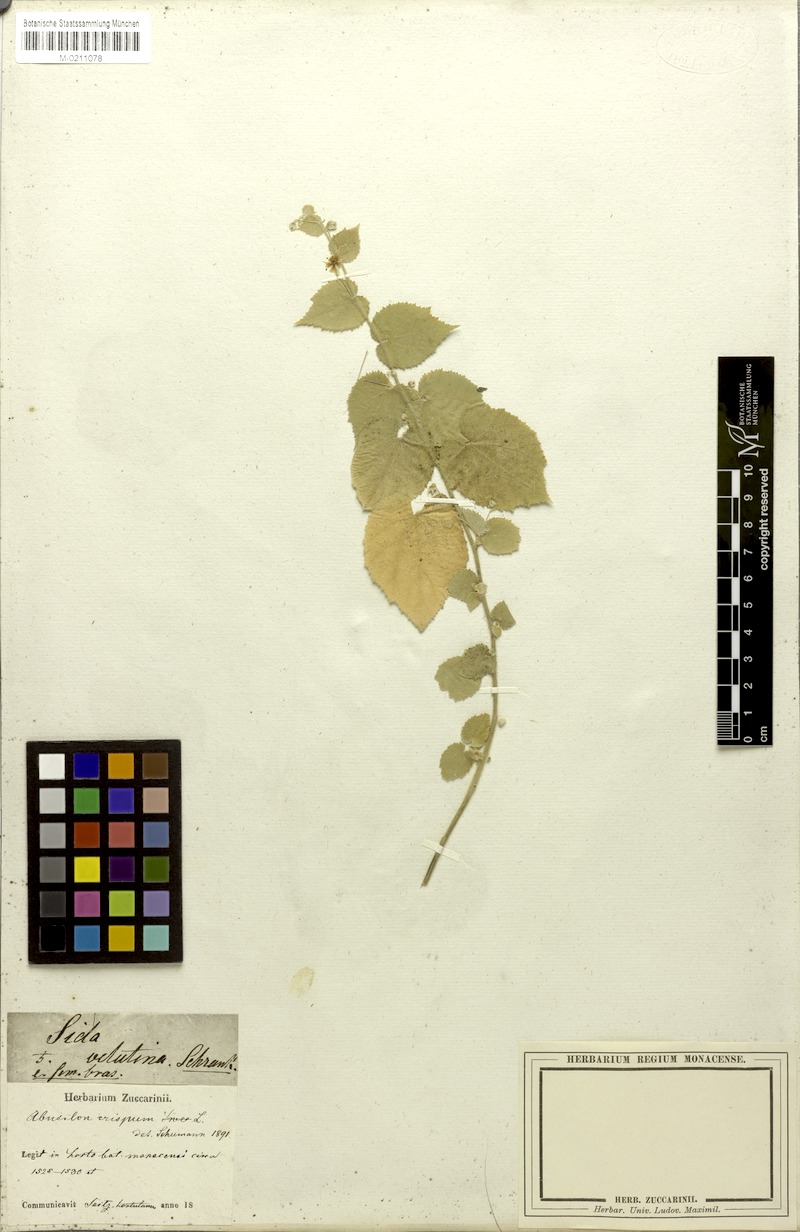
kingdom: Plantae
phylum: Tracheophyta
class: Magnoliopsida
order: Malvales
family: Malvaceae
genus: Herissantia
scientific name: Herissantia crispa
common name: Bladdermallow
